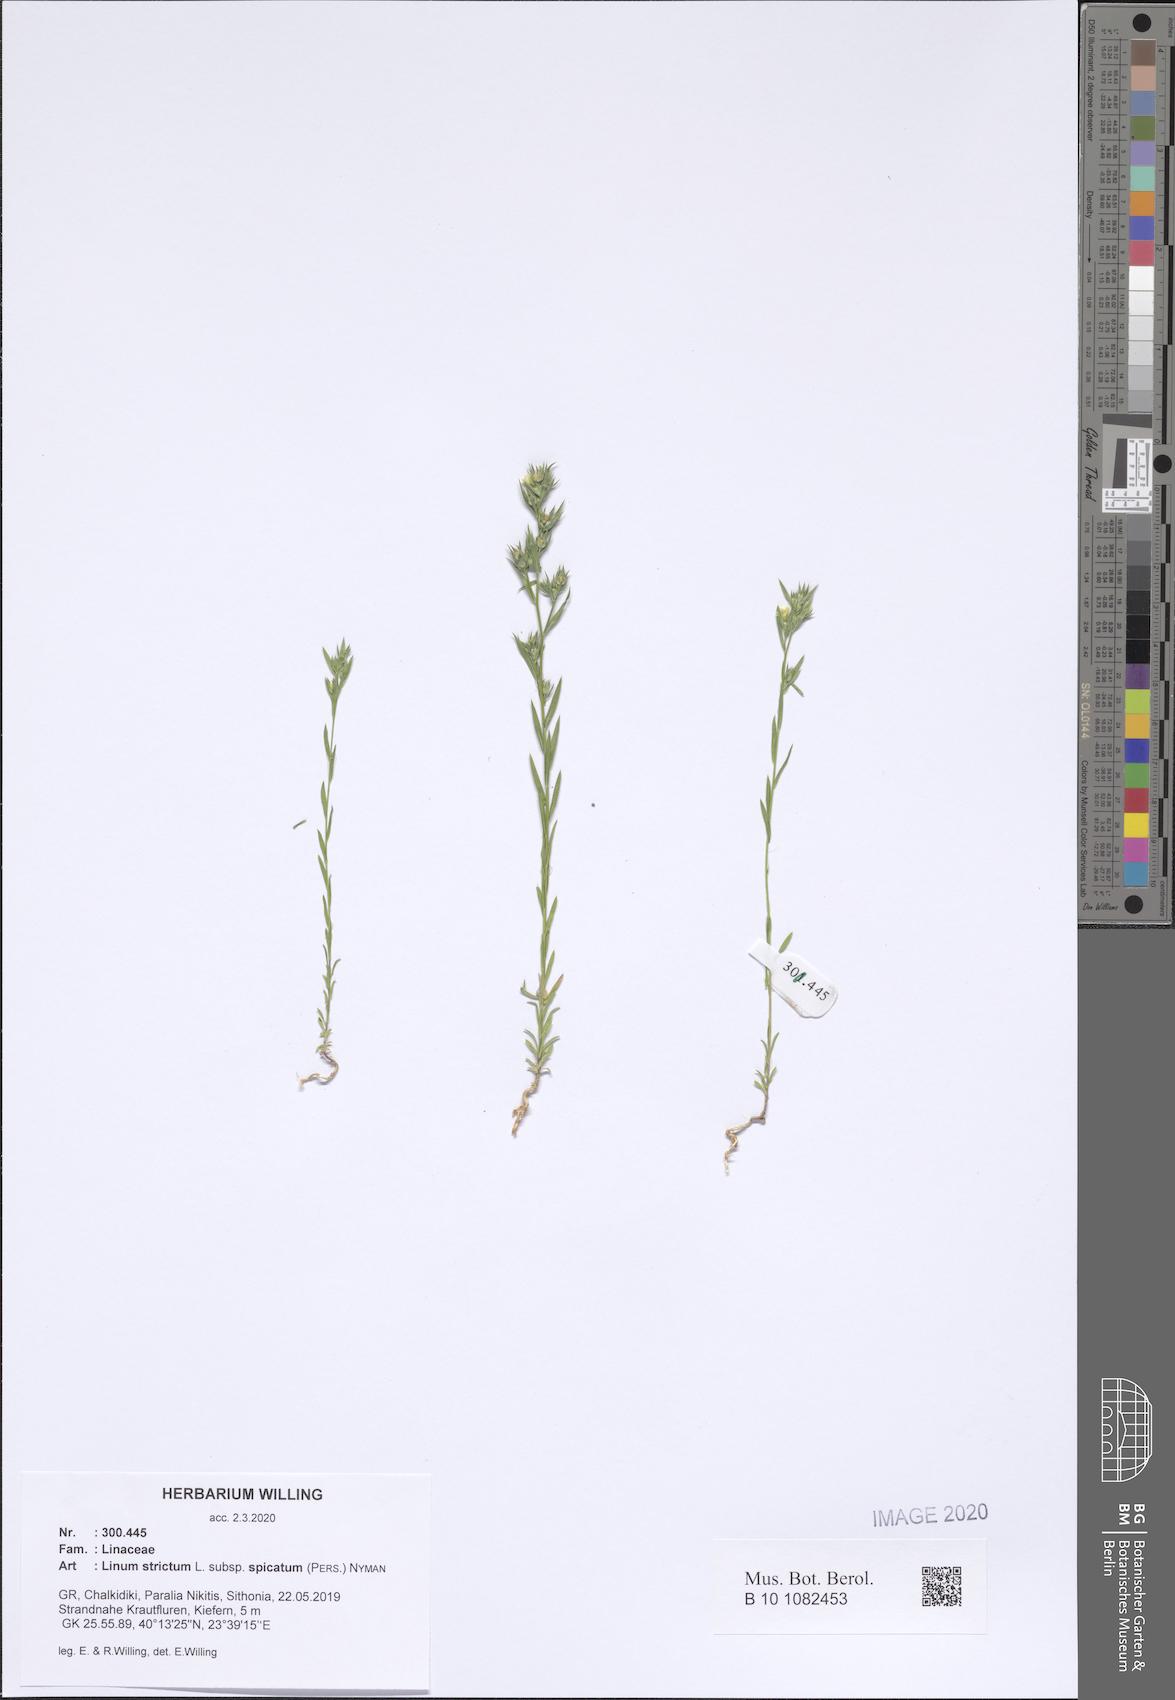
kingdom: Plantae
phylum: Tracheophyta
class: Magnoliopsida
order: Malpighiales
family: Linaceae
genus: Linum
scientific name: Linum strictum
